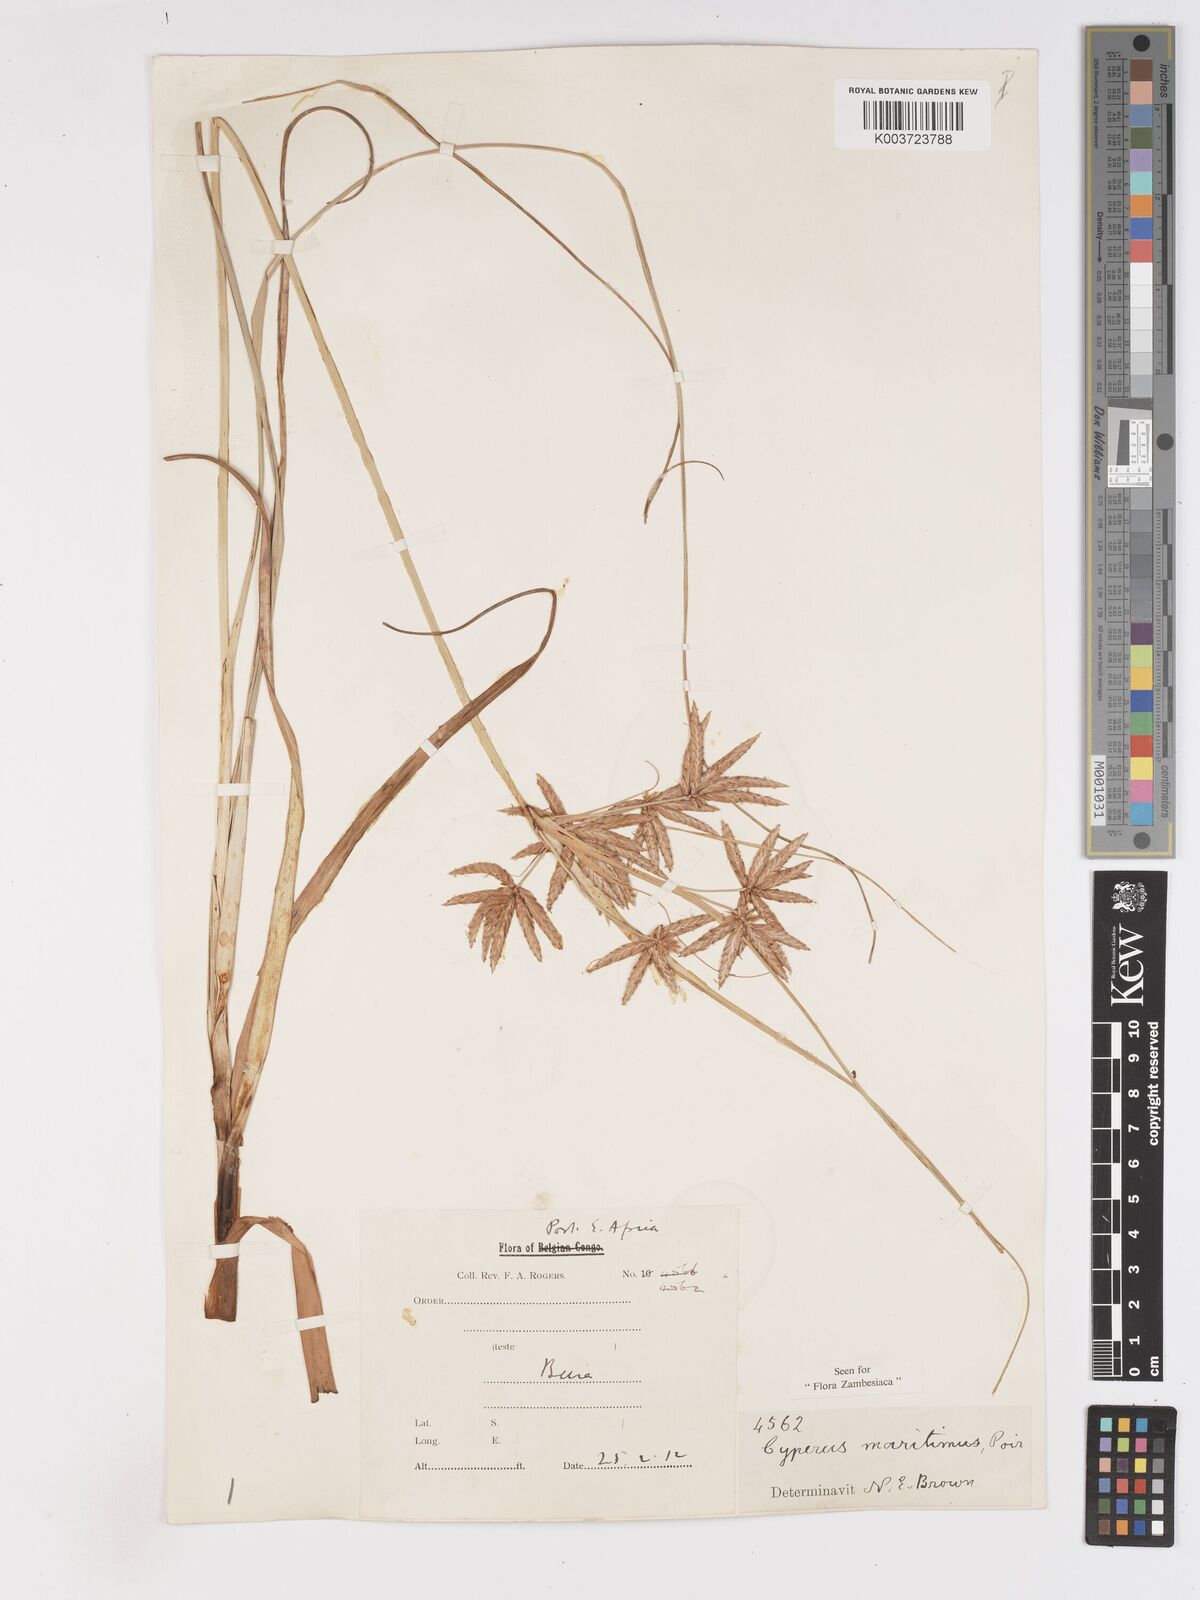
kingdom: Plantae
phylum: Tracheophyta
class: Liliopsida
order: Poales
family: Cyperaceae
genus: Cyperus
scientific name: Cyperus crassipes
